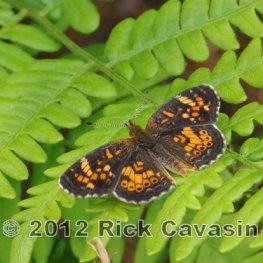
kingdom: Animalia
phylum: Arthropoda
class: Insecta
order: Lepidoptera
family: Nymphalidae
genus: Phyciodes
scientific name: Phyciodes batesii
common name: Tawny Crescent
